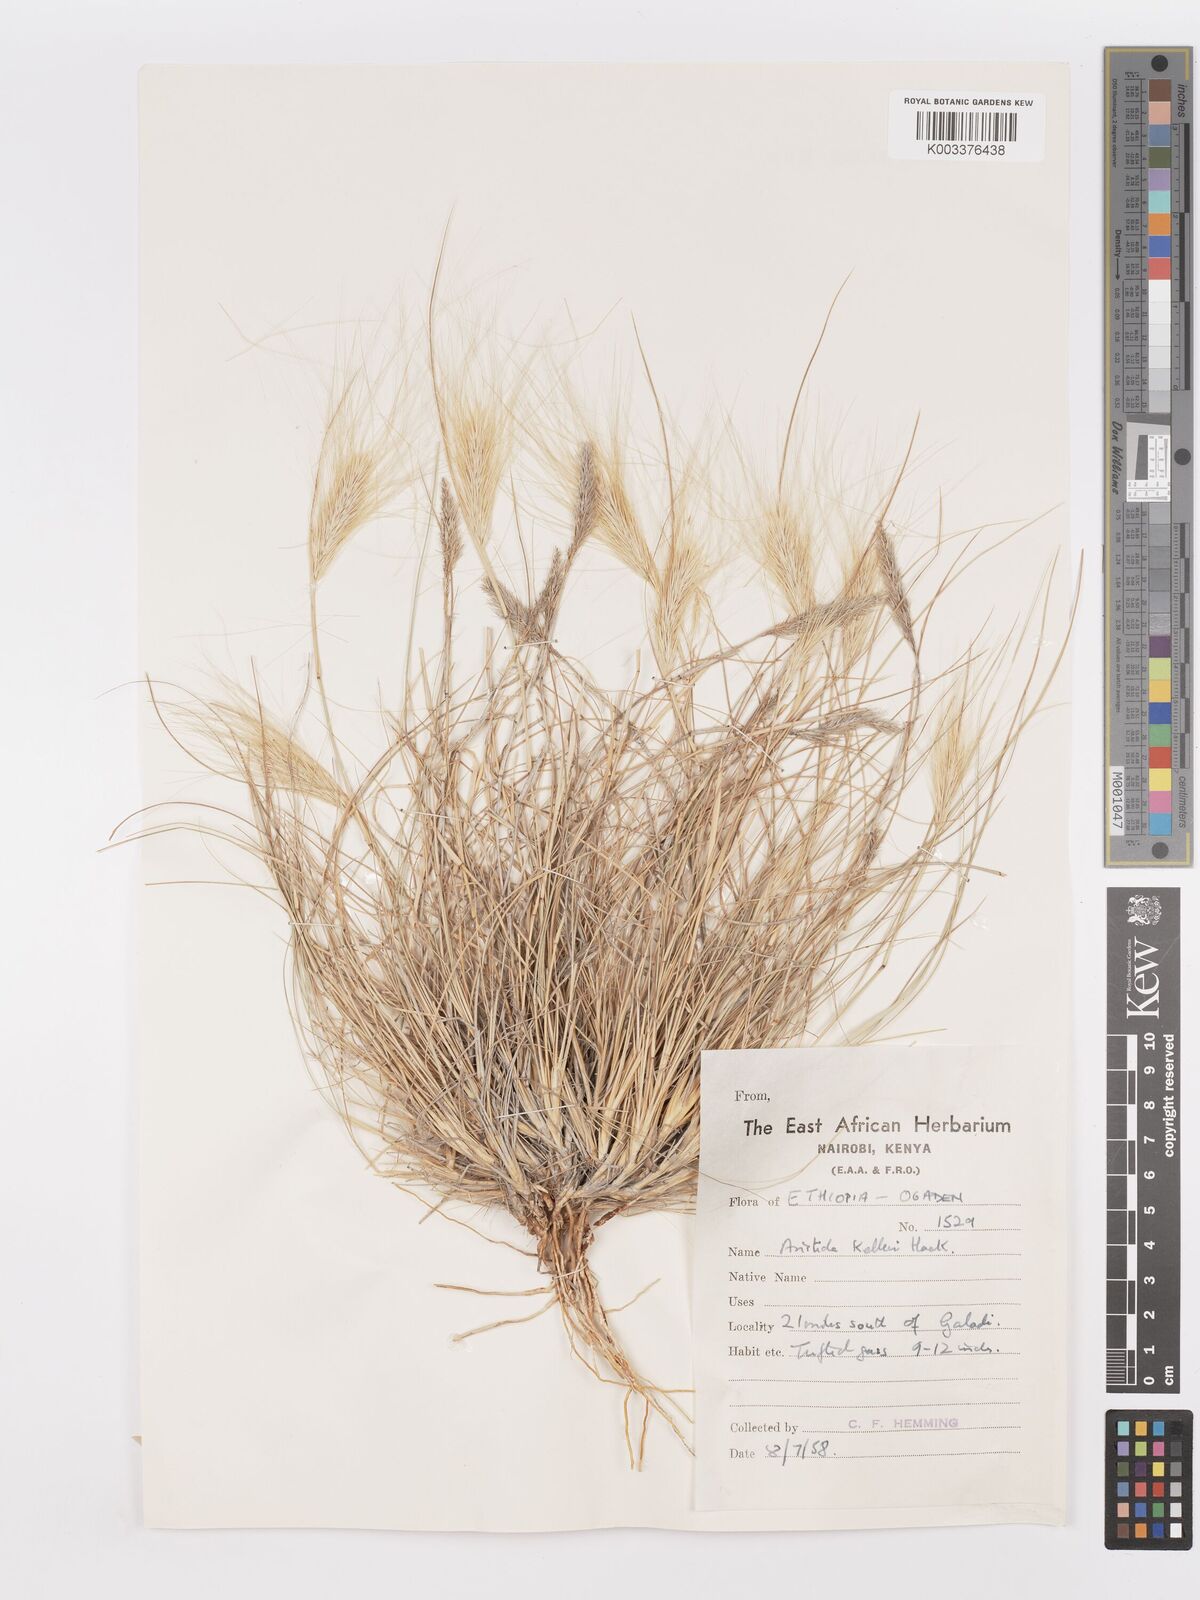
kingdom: Plantae
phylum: Tracheophyta
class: Liliopsida
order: Poales
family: Poaceae
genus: Aristida
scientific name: Aristida kelleri
